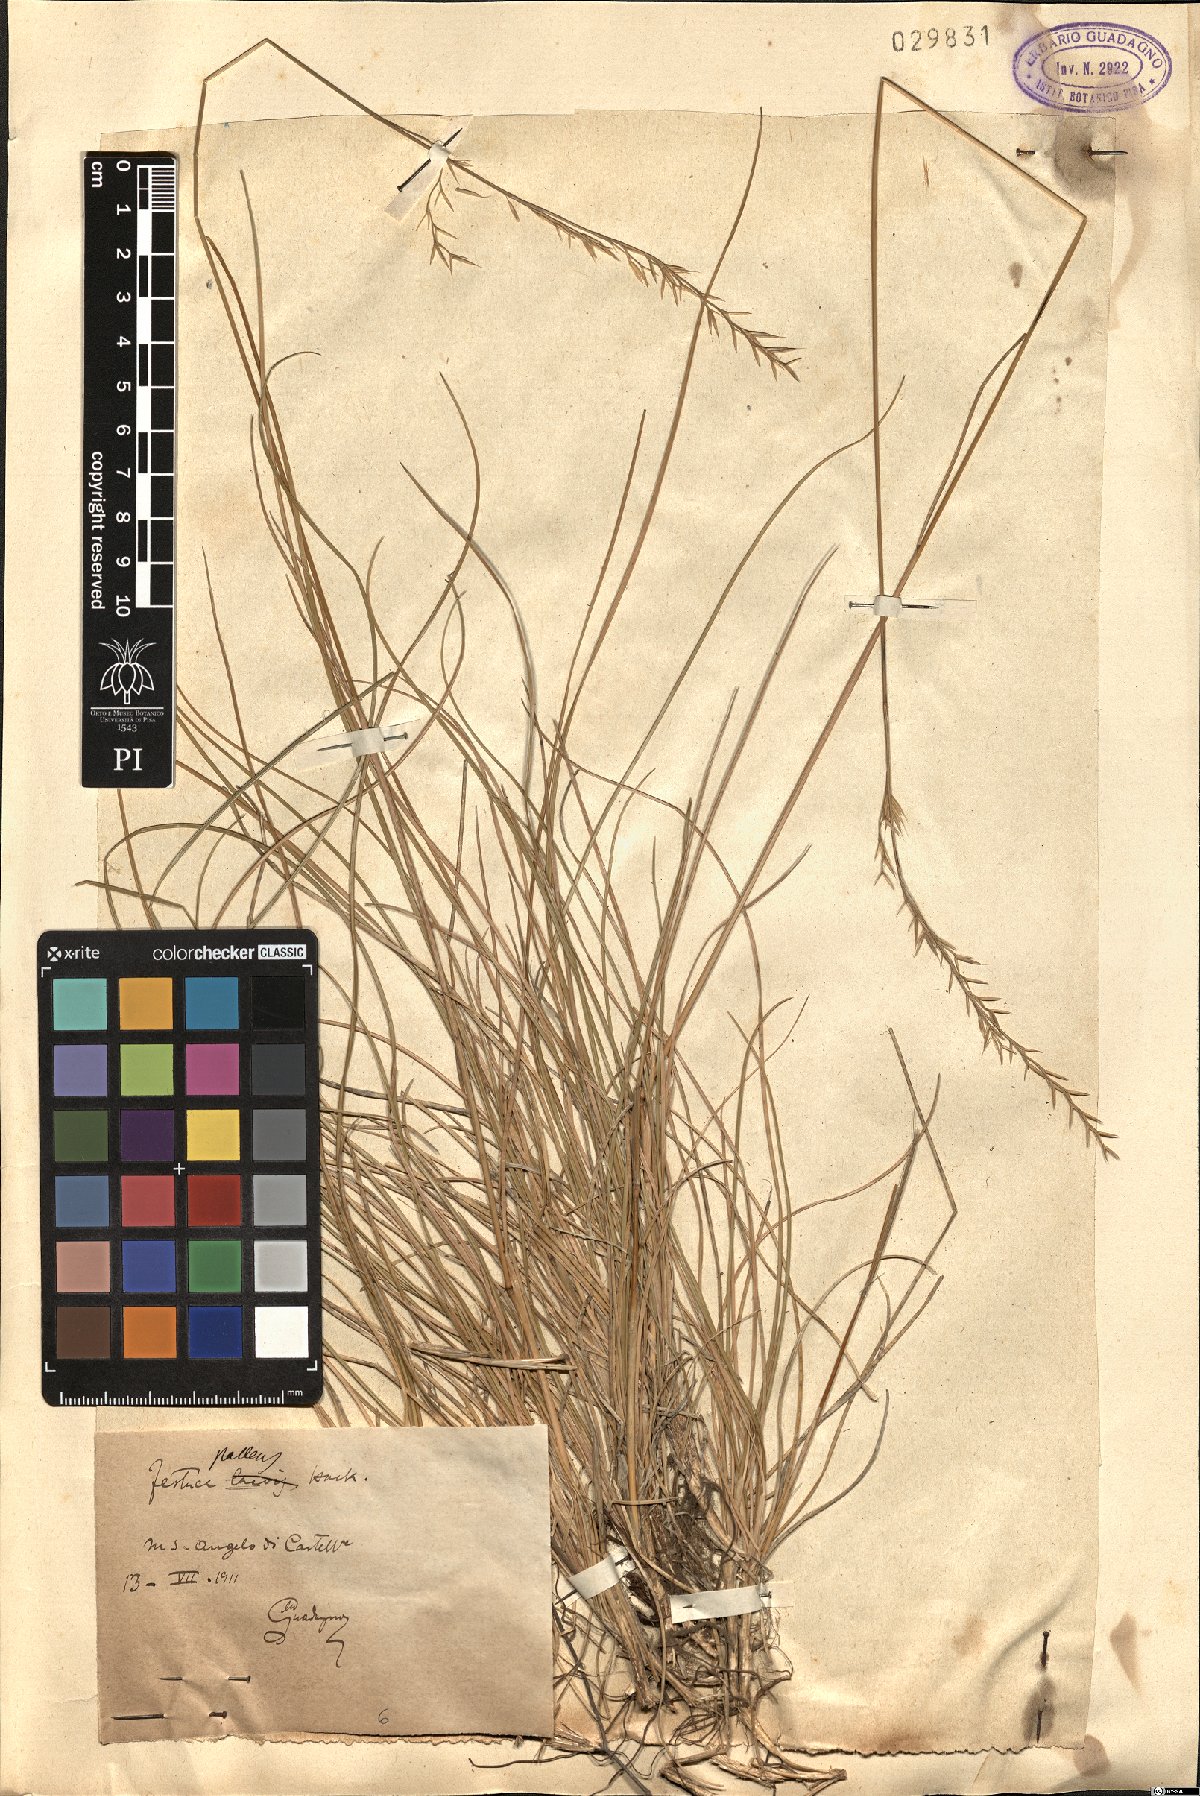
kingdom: Plantae
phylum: Tracheophyta
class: Liliopsida
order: Poales
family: Poaceae
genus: Festuca
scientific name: Festuca circummediterranea
